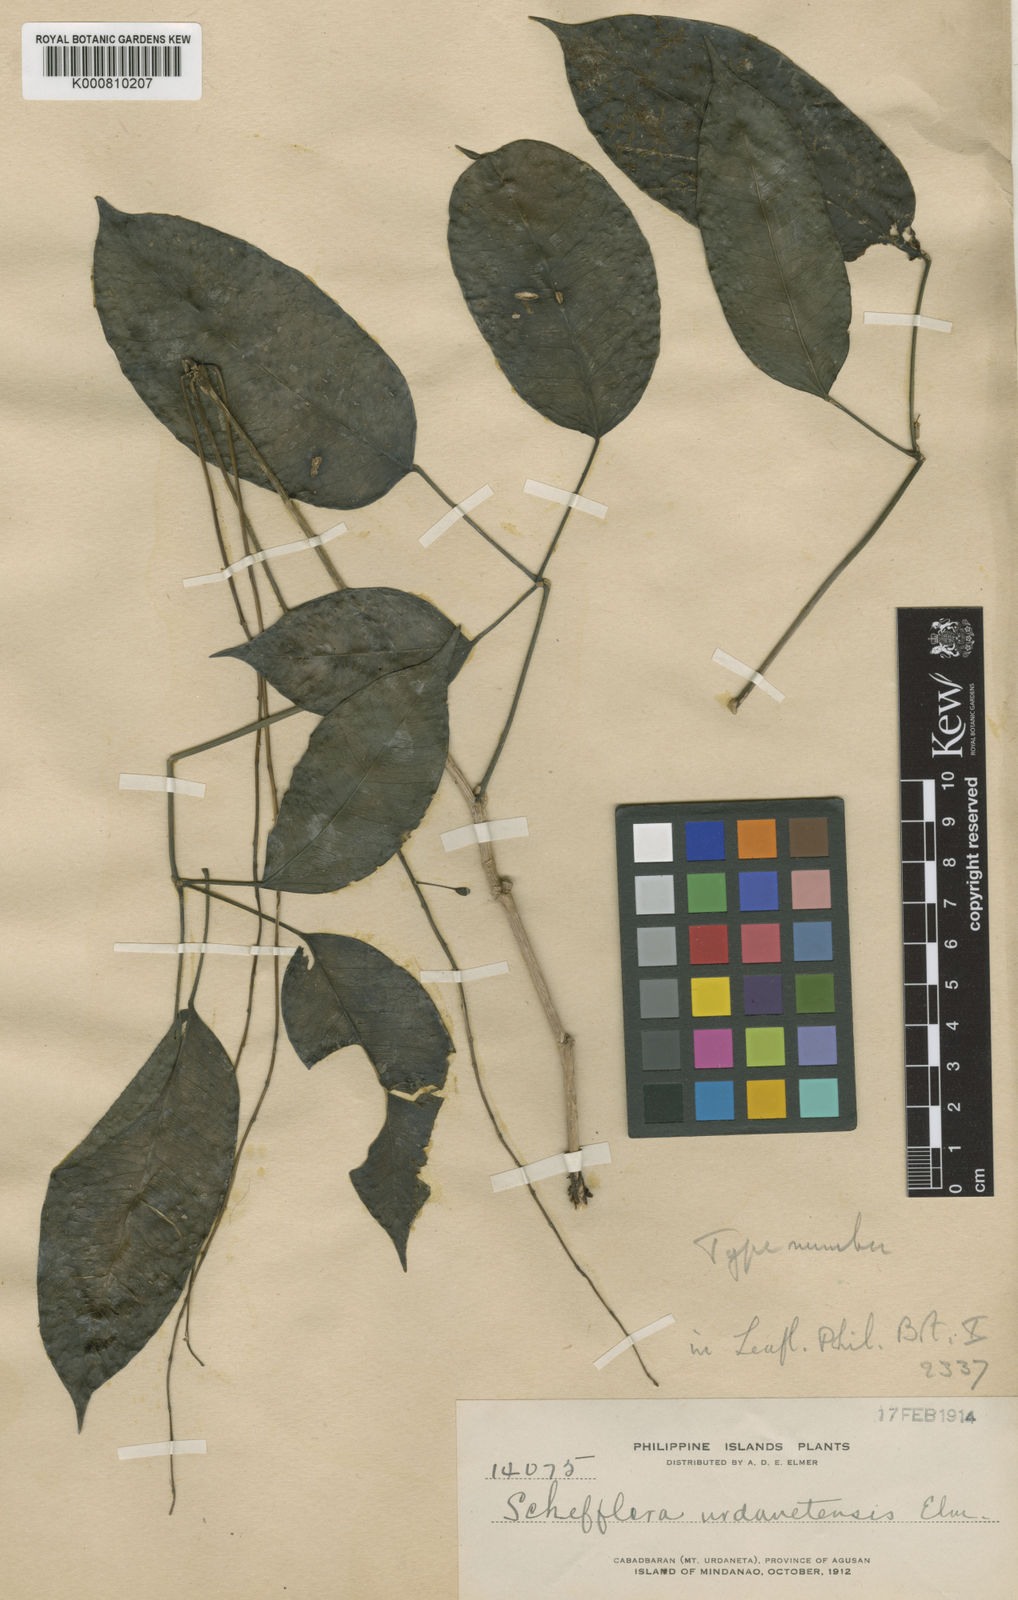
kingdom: Plantae
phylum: Tracheophyta
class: Magnoliopsida
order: Apiales
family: Araliaceae
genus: Heptapleurum
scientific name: Heptapleurum urdanetense
